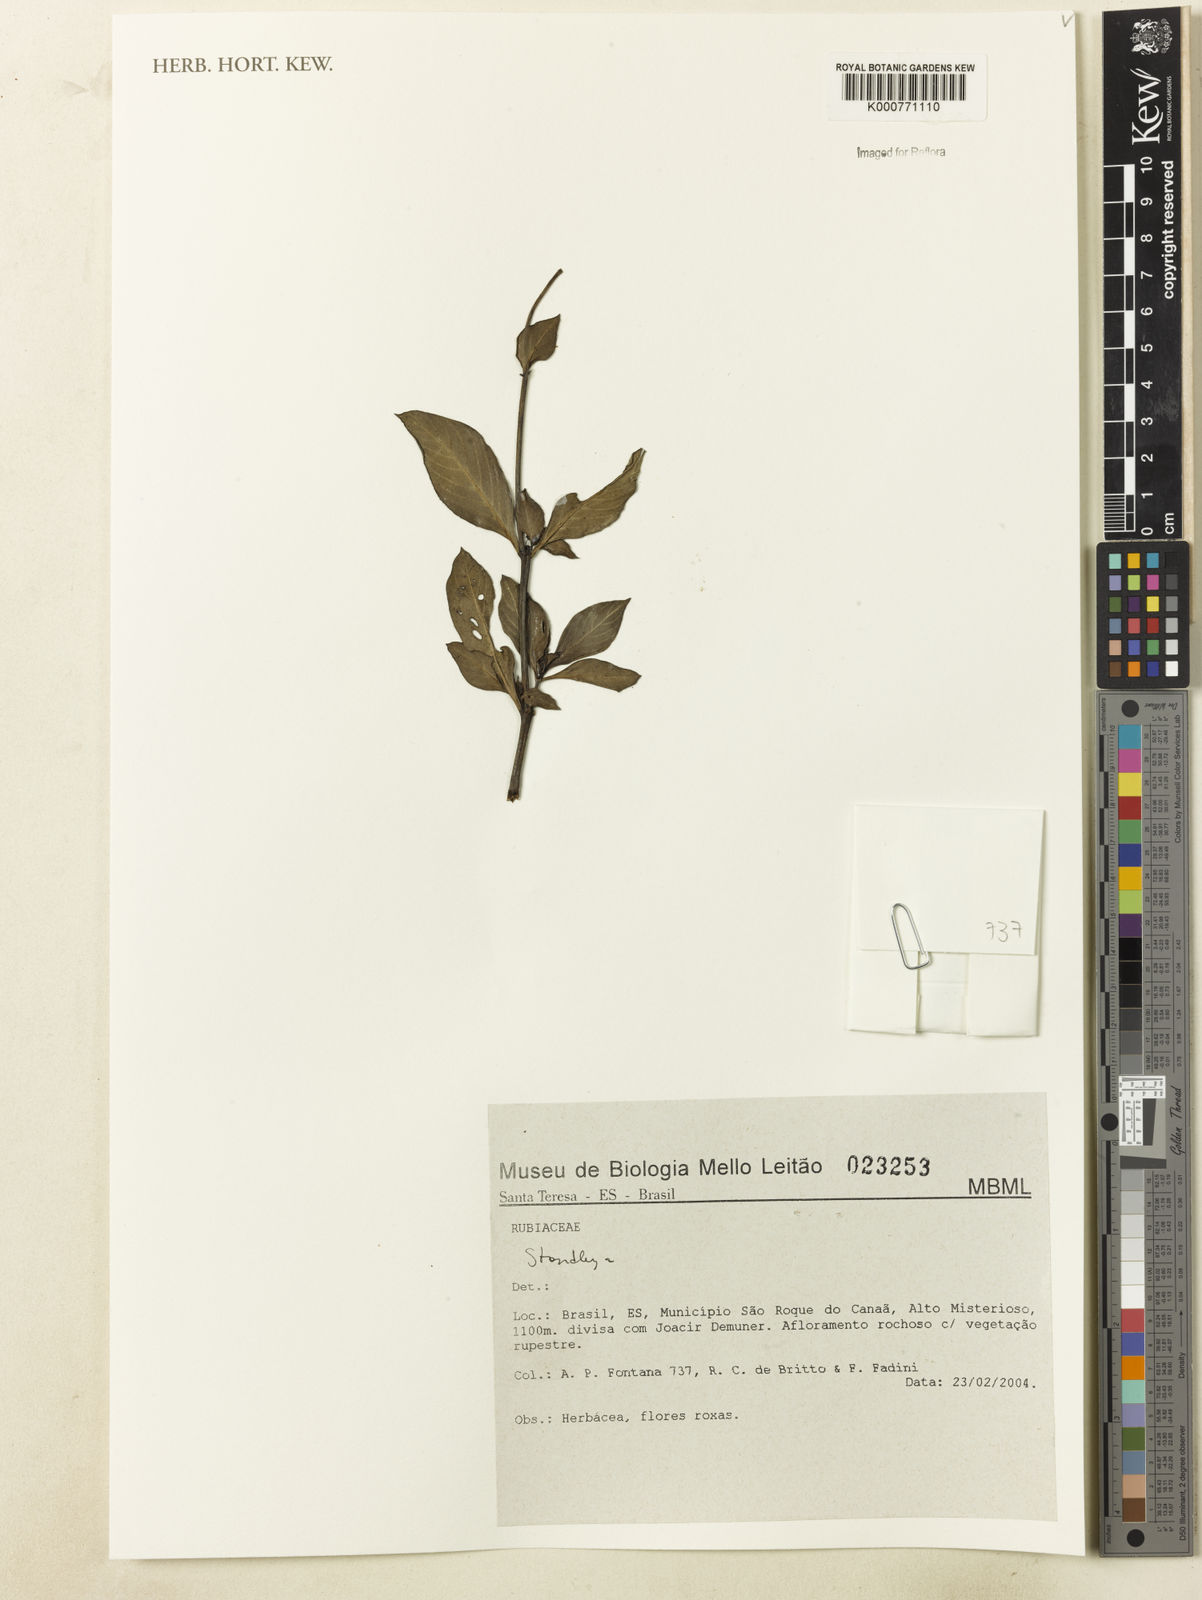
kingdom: Plantae
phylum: Tracheophyta
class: Magnoliopsida
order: Gentianales
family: Rubiaceae
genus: Standleya
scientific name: Standleya
